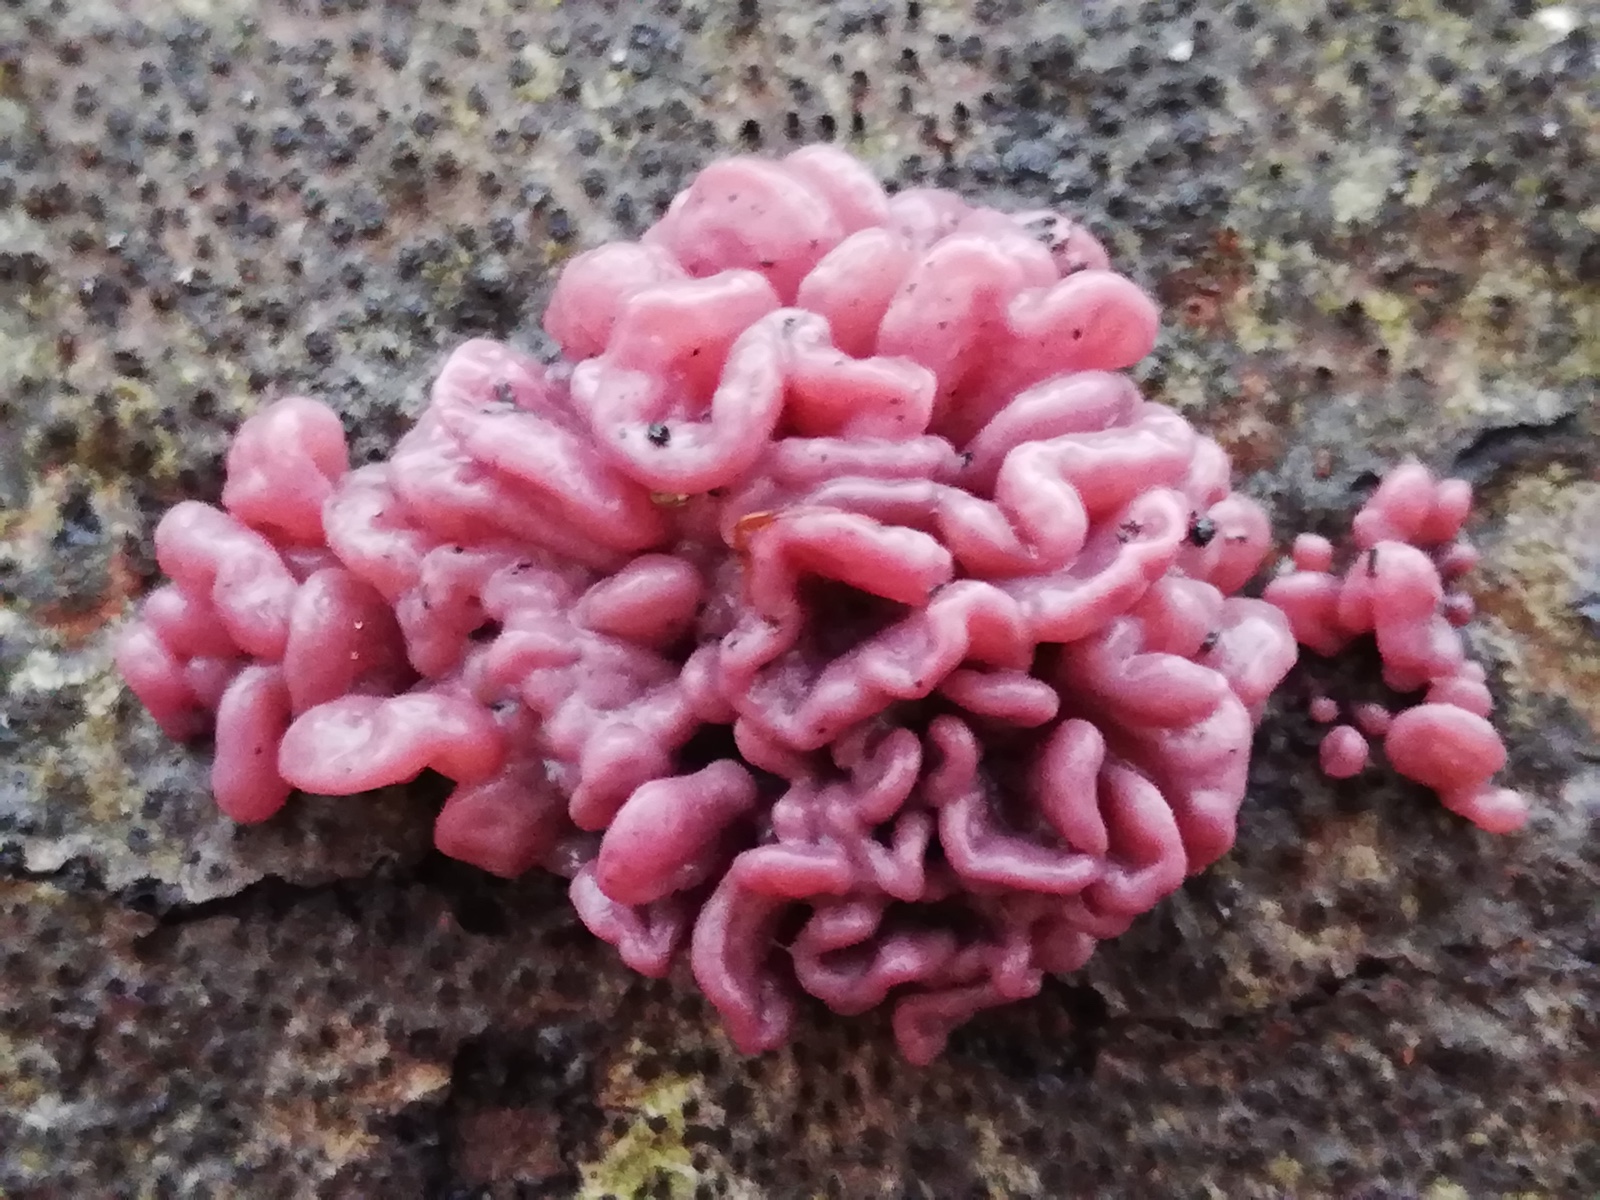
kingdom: Fungi
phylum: Ascomycota
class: Leotiomycetes
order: Helotiales
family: Gelatinodiscaceae
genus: Ascocoryne
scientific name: Ascocoryne sarcoides
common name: rødlilla sejskive
